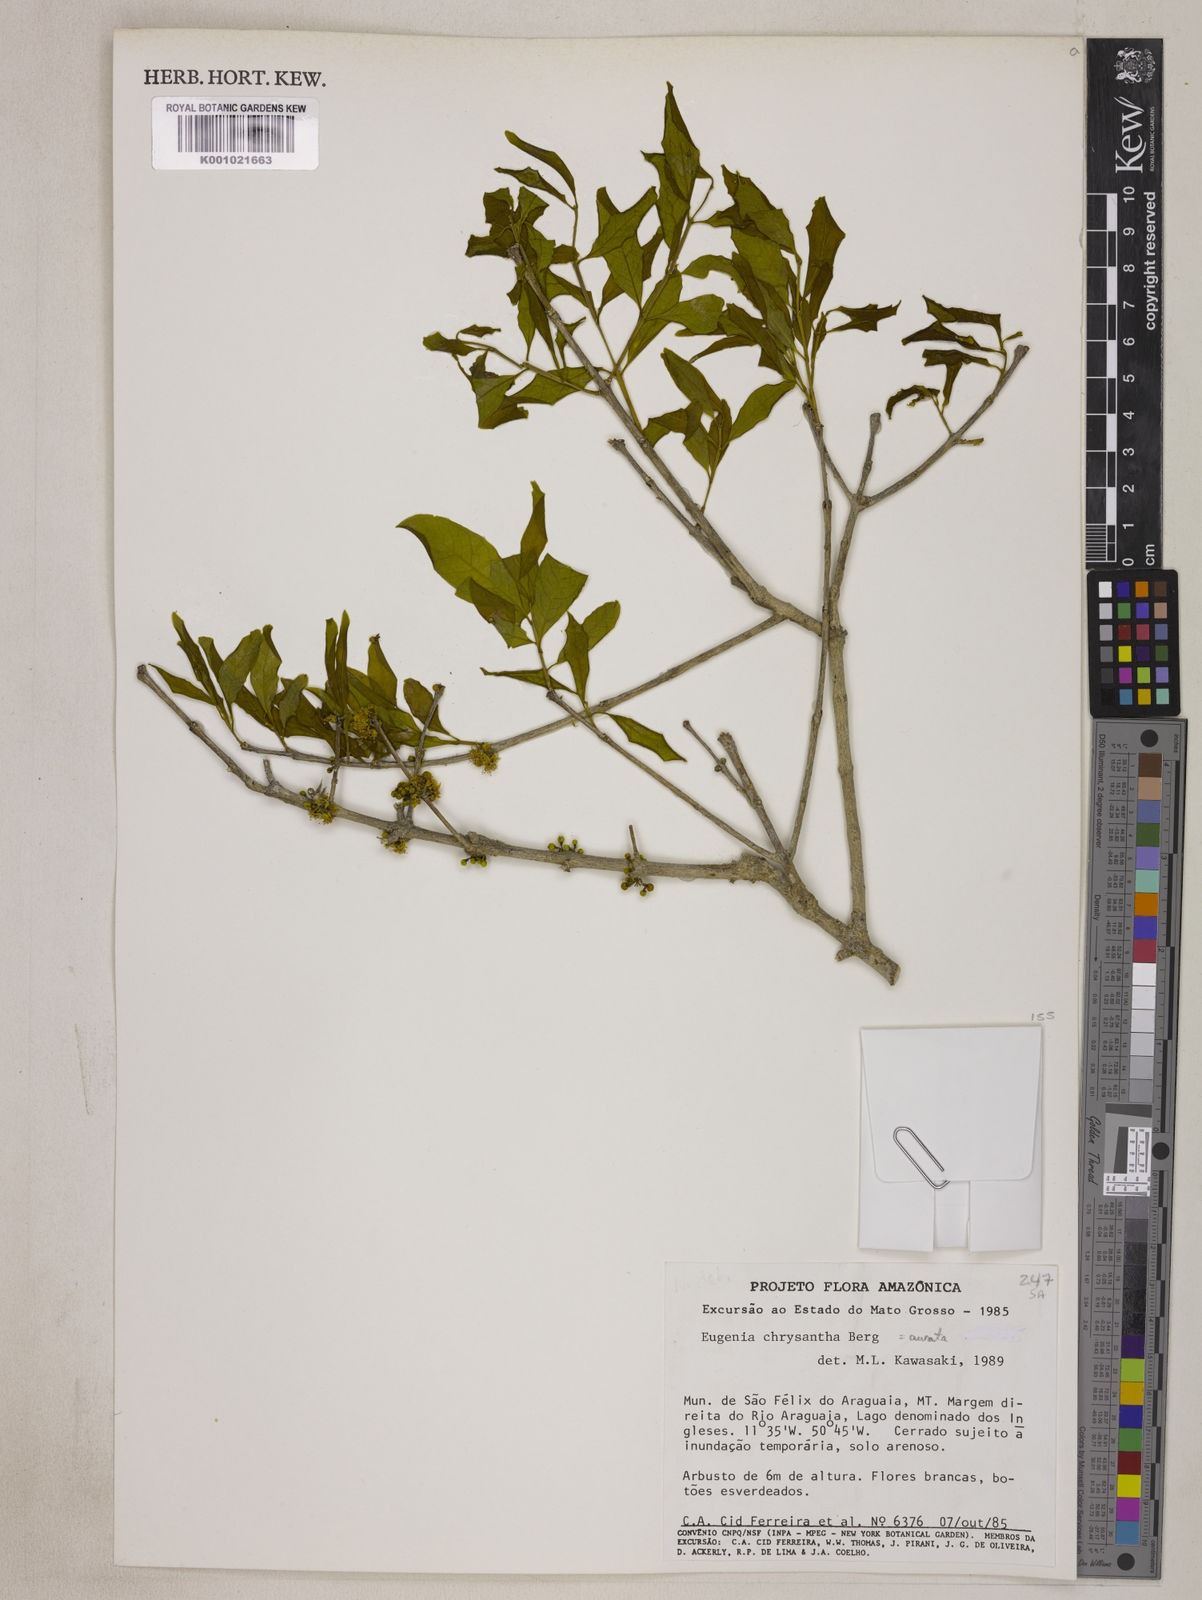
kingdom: Plantae
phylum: Tracheophyta
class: Magnoliopsida
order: Myrtales
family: Myrtaceae
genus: Eugenia
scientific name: Eugenia aurata
